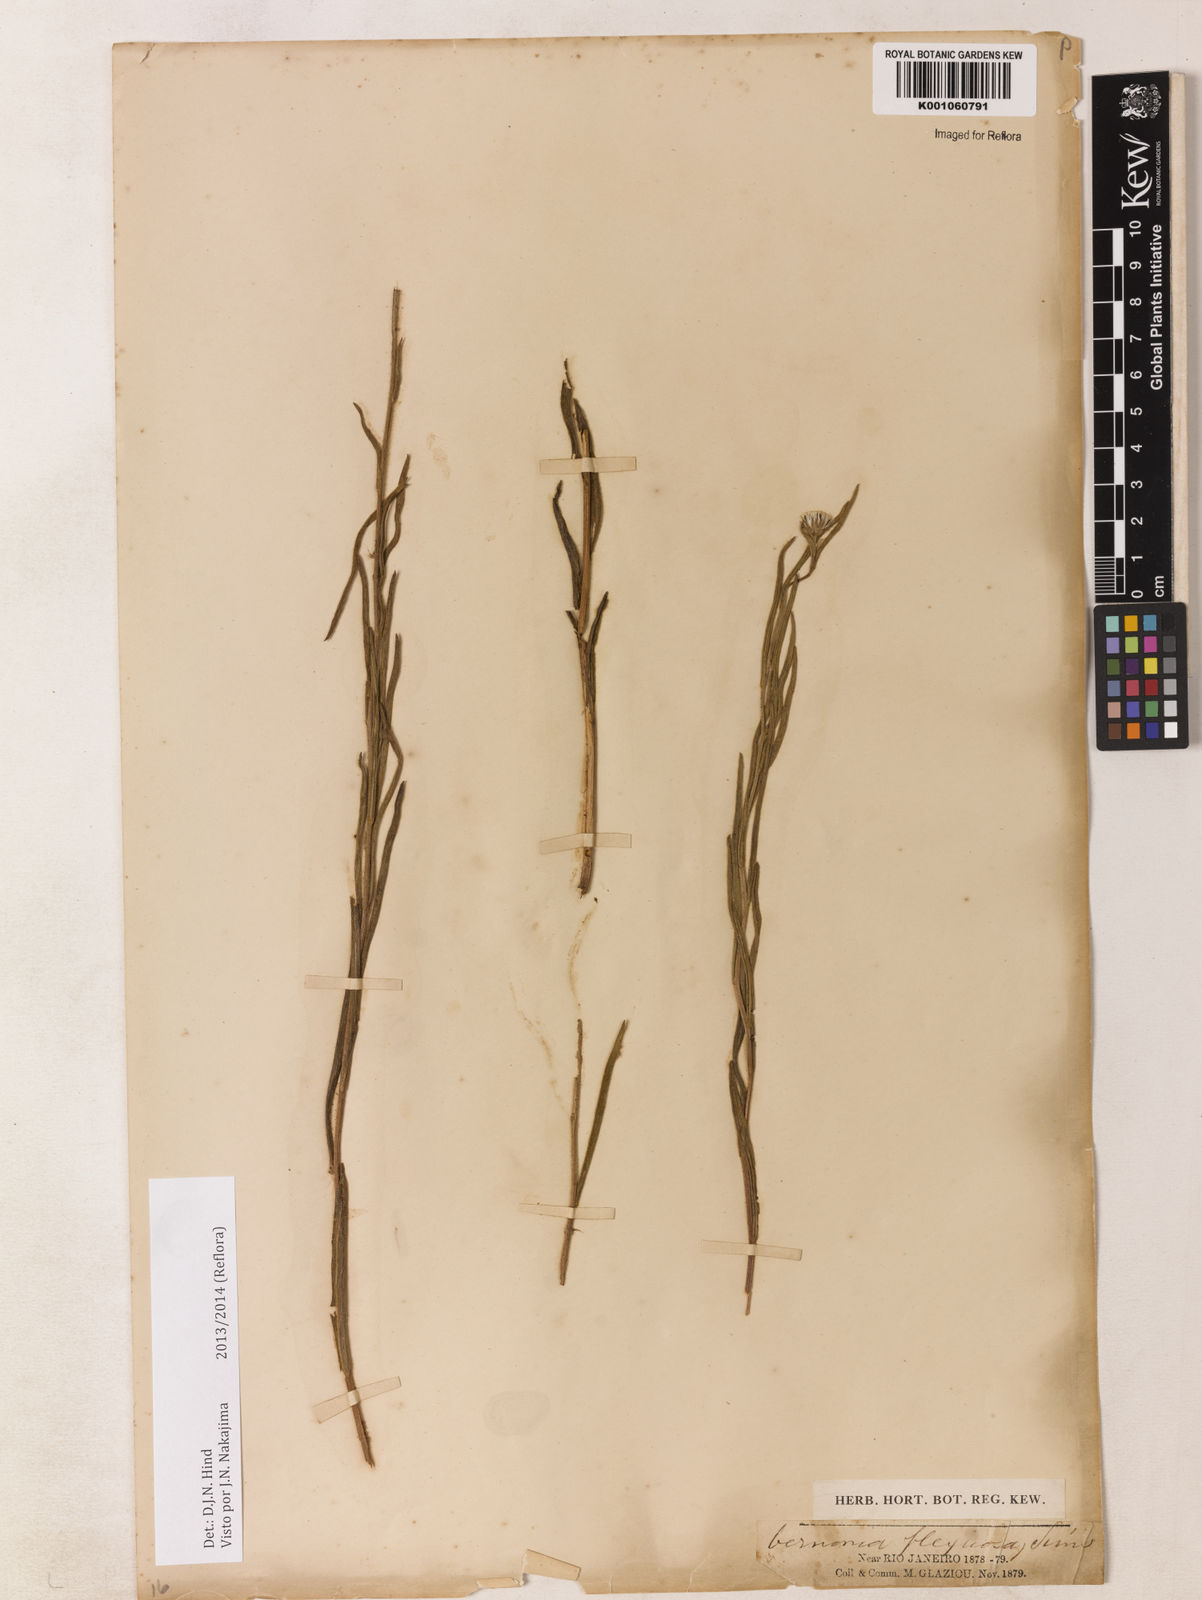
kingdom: Plantae
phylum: Tracheophyta
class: Magnoliopsida
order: Asterales
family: Asteraceae
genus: Chrysolaena
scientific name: Chrysolaena flexuosa
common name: Zig-zag vernonia
